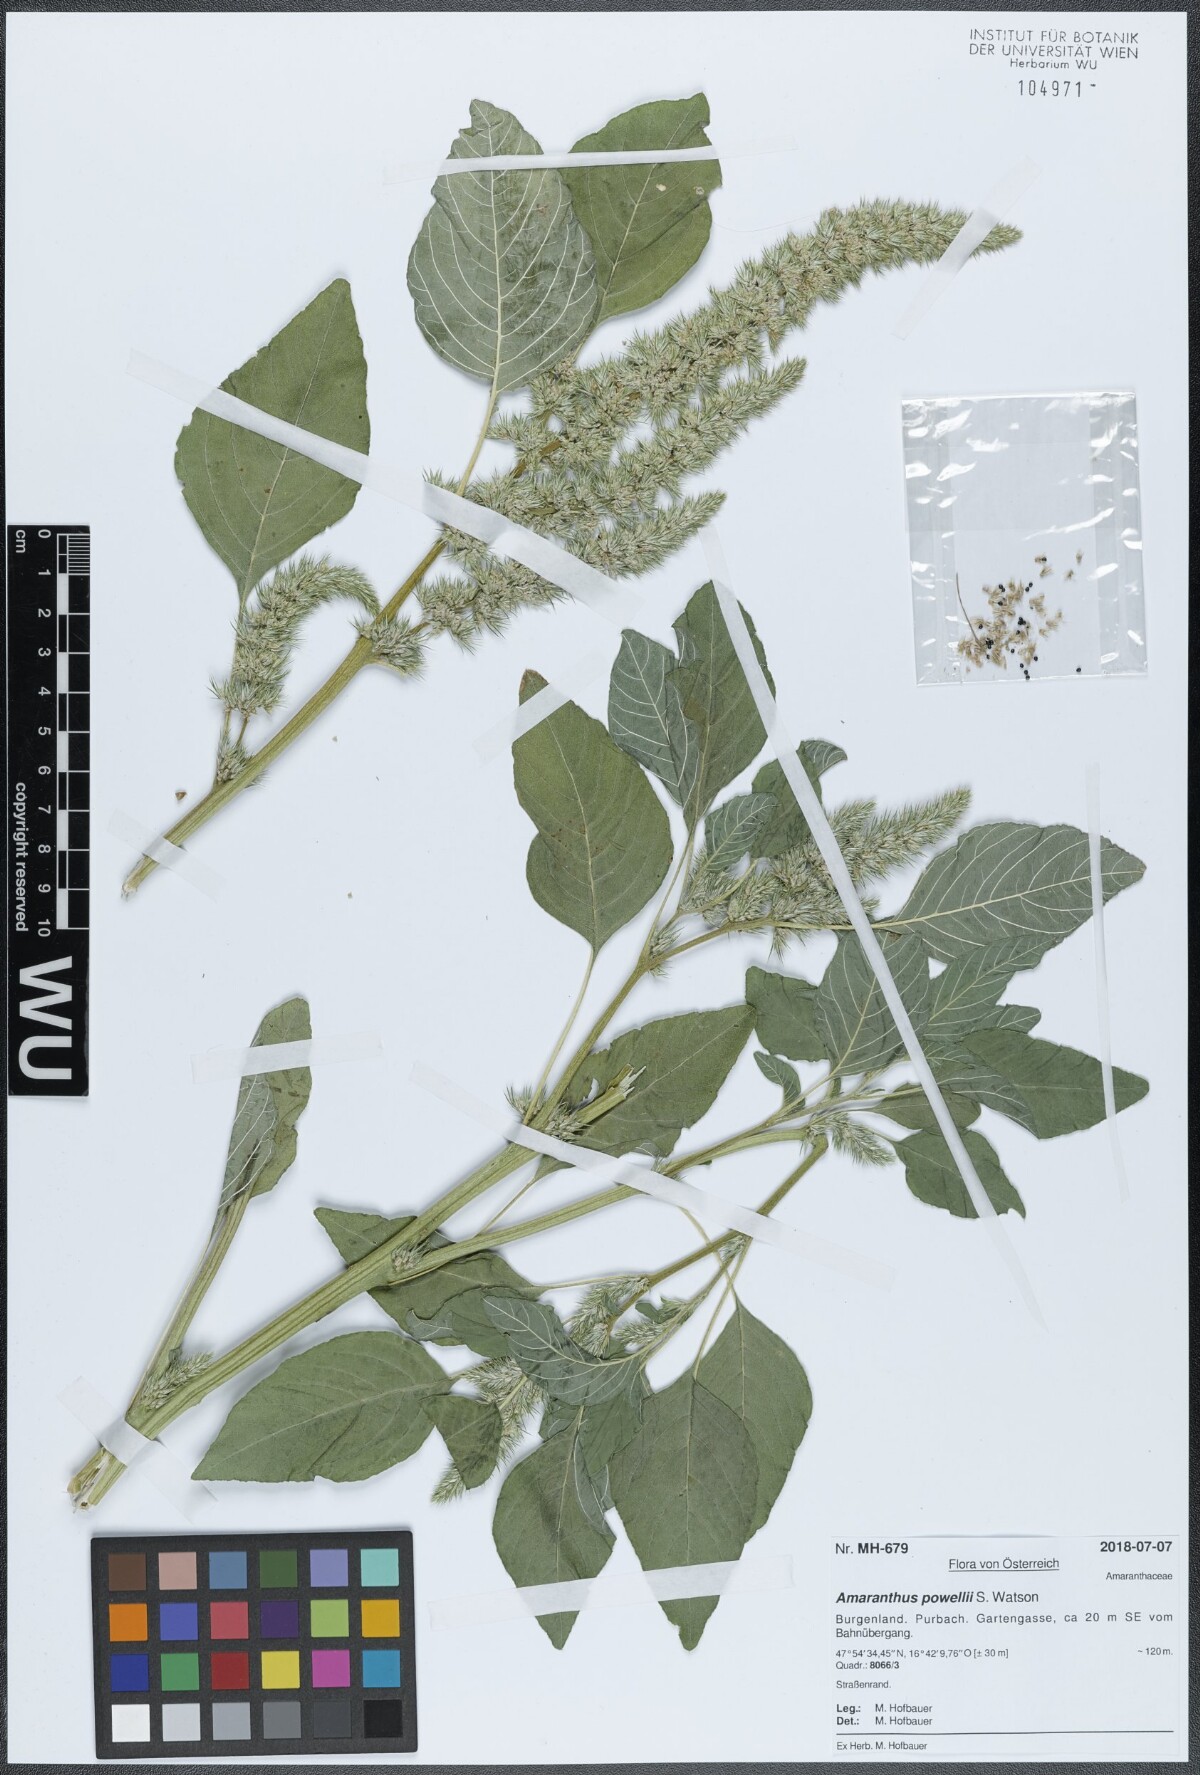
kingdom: Plantae
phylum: Tracheophyta
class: Magnoliopsida
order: Caryophyllales
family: Amaranthaceae
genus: Amaranthus
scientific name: Amaranthus powellii
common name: Powell's amaranth
